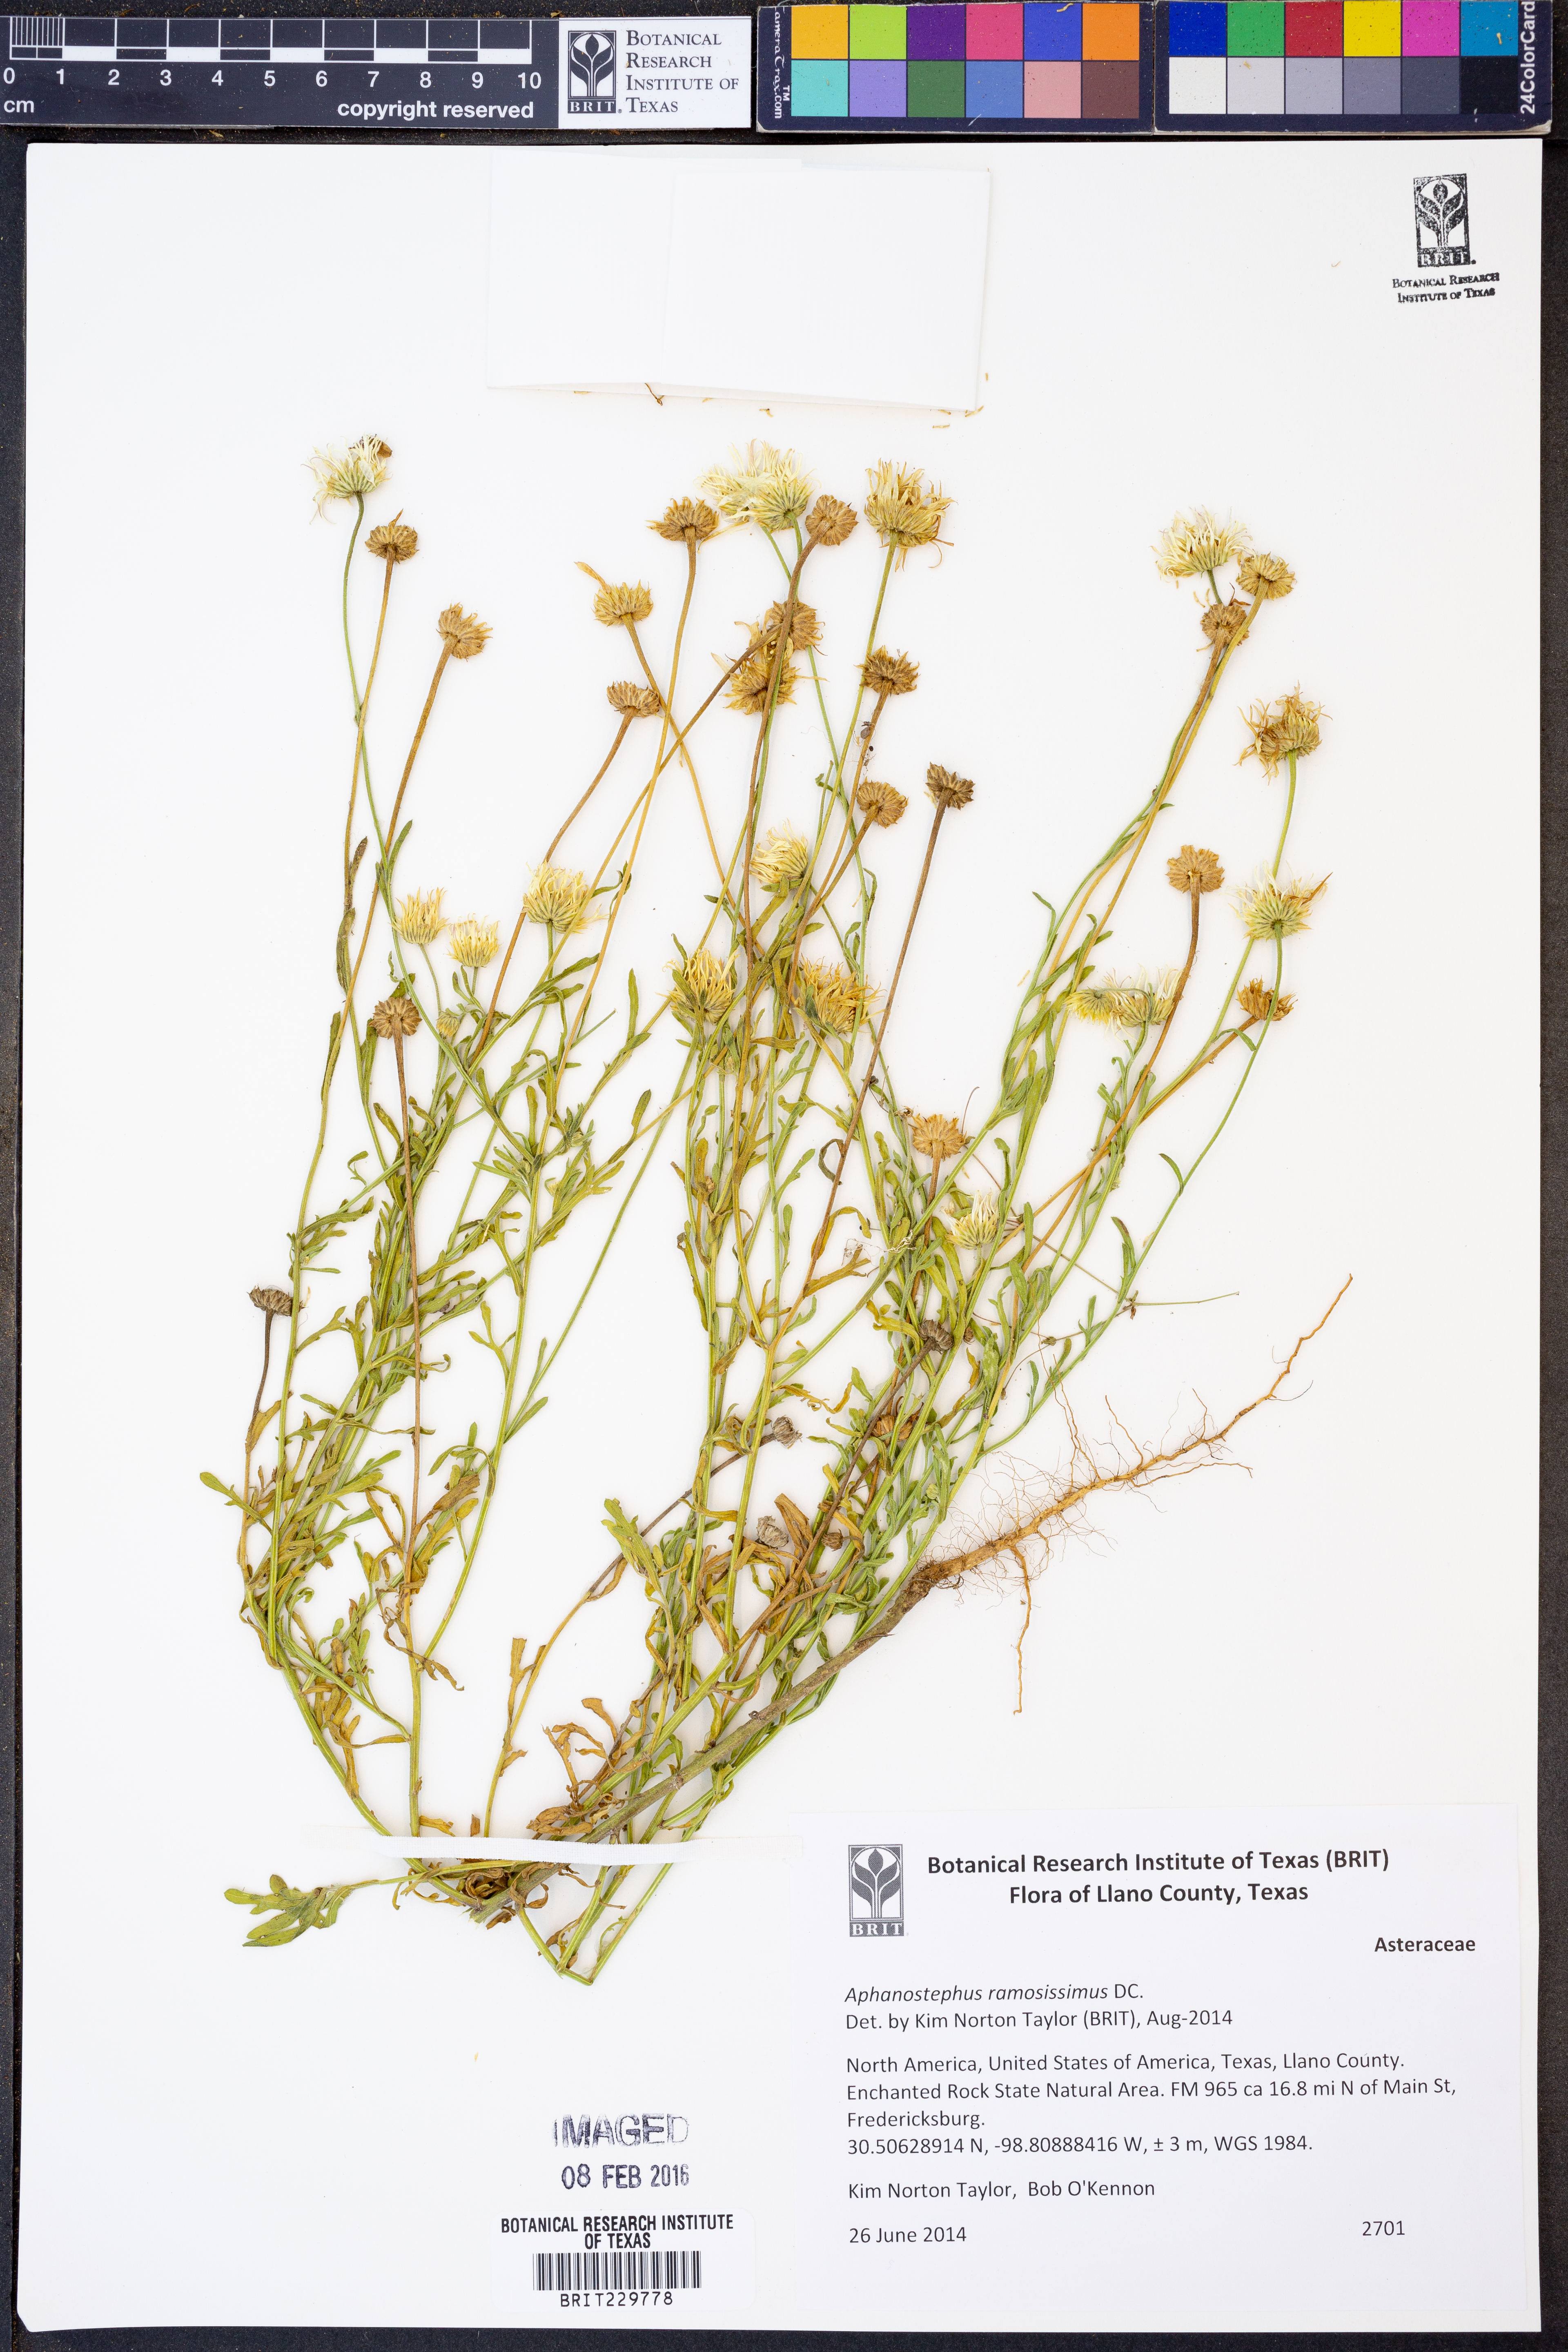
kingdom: Plantae
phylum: Tracheophyta
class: Magnoliopsida
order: Asterales
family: Asteraceae
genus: Aphanostephus
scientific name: Aphanostephus ramosissimus
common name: Plains lazy daisy
